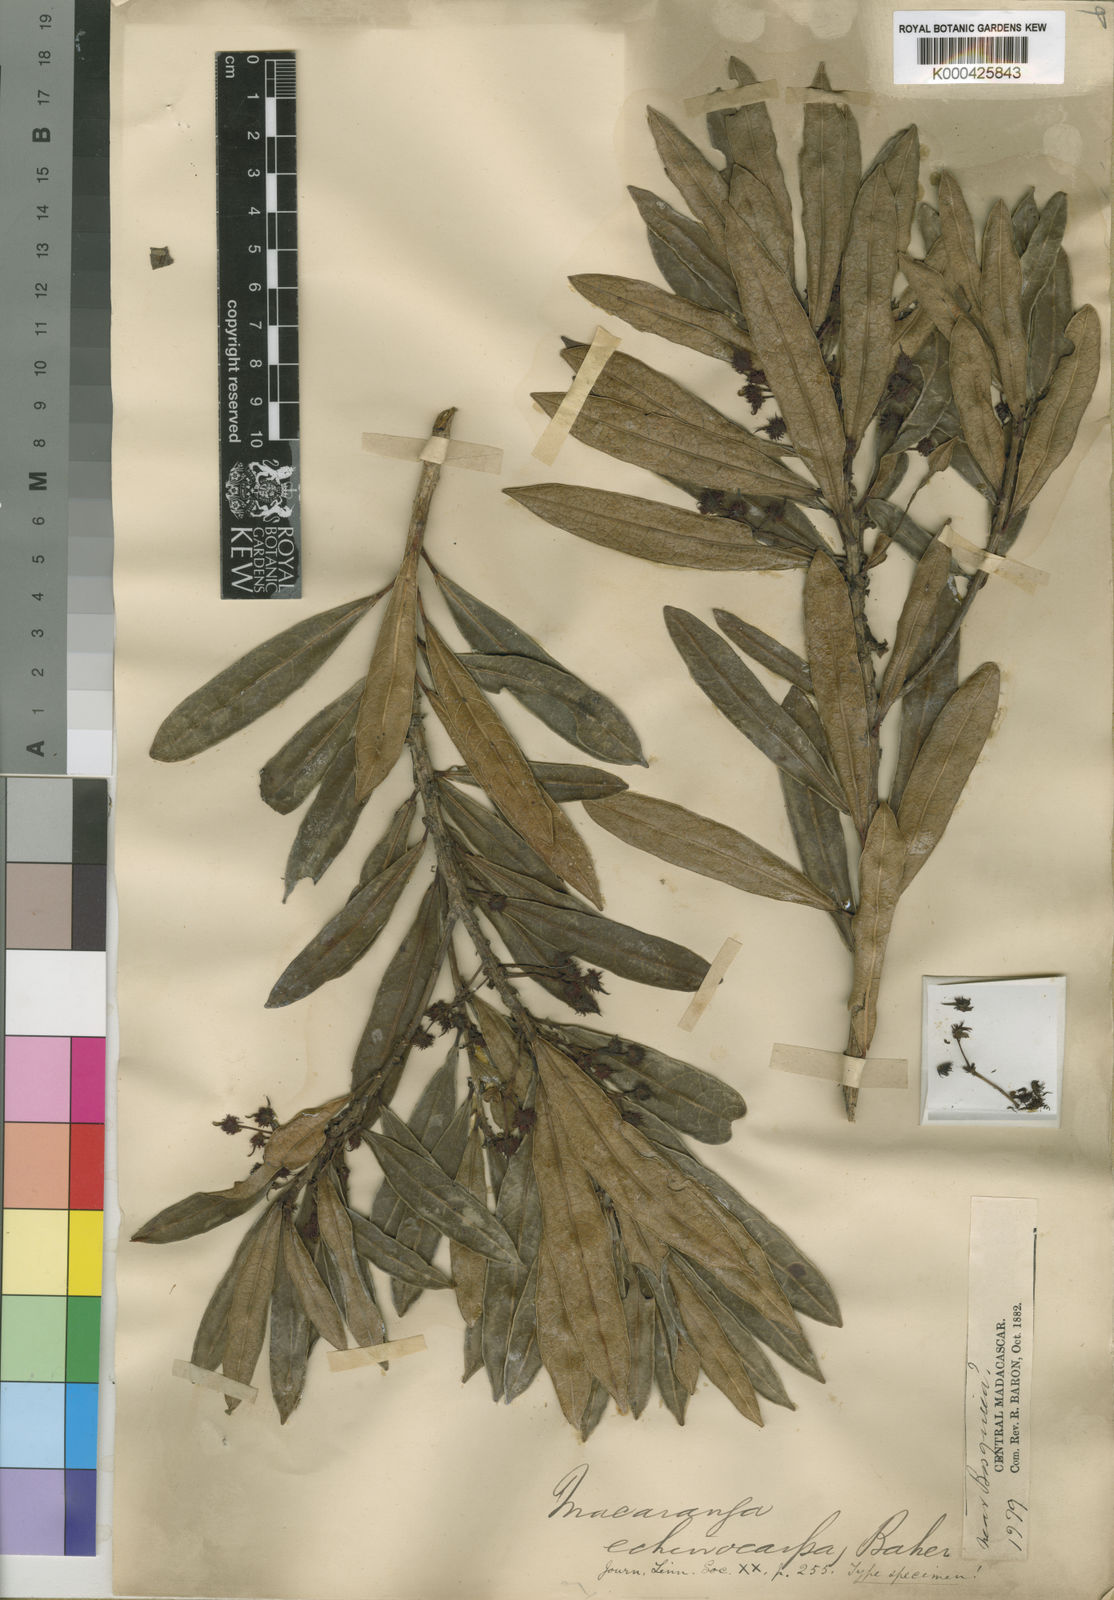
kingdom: Plantae
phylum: Tracheophyta
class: Magnoliopsida
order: Malpighiales
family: Euphorbiaceae
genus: Macaranga
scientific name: Macaranga echinocarpa
